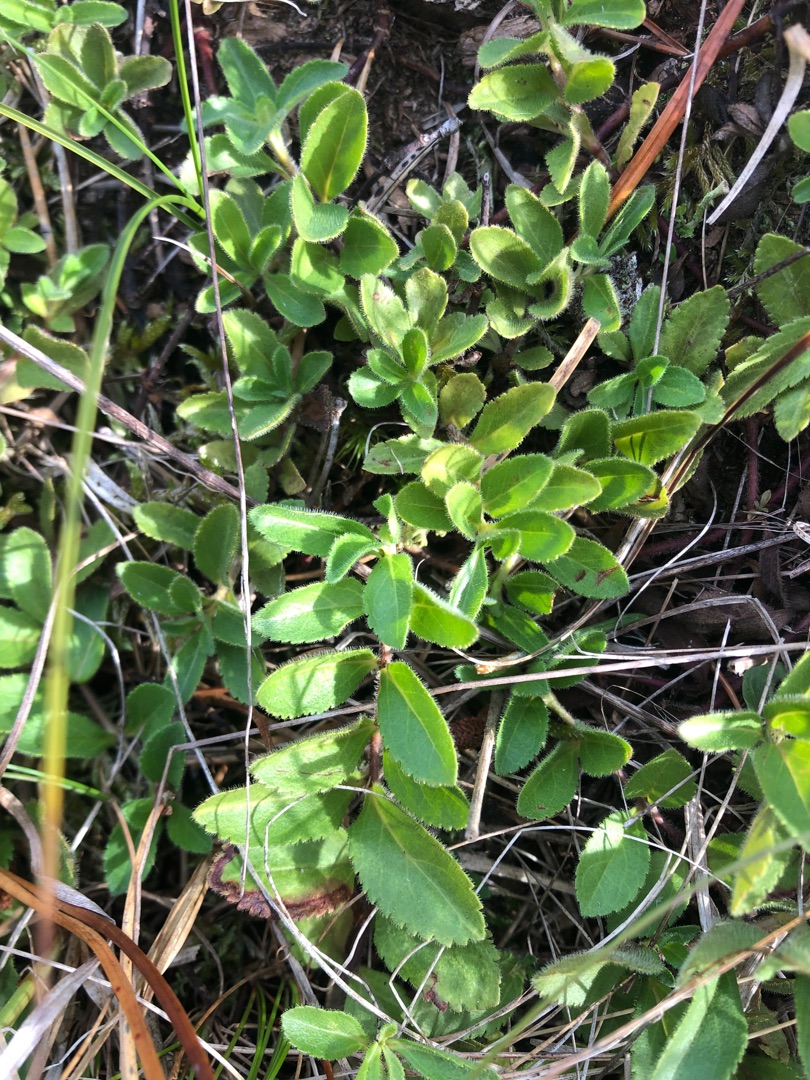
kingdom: Plantae
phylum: Tracheophyta
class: Magnoliopsida
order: Lamiales
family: Plantaginaceae
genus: Veronica
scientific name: Veronica officinalis
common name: Læge-ærenpris
